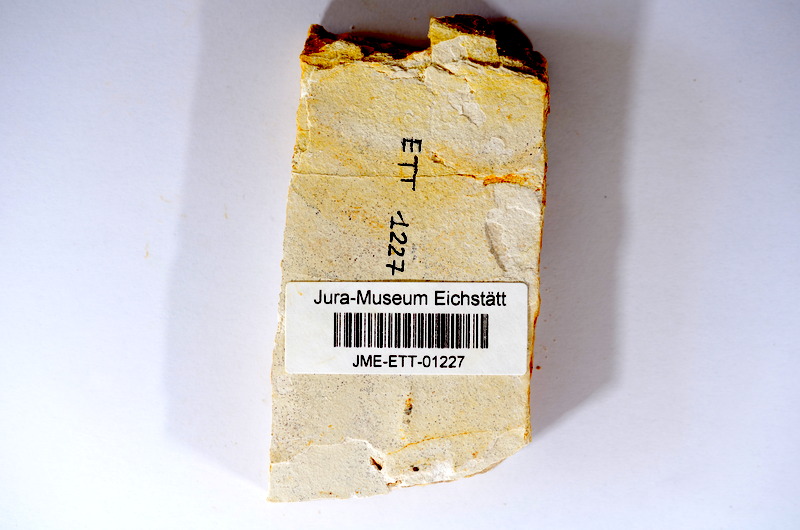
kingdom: Animalia
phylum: Chordata
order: Salmoniformes
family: Orthogonikleithridae
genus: Orthogonikleithrus
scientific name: Orthogonikleithrus hoelli
